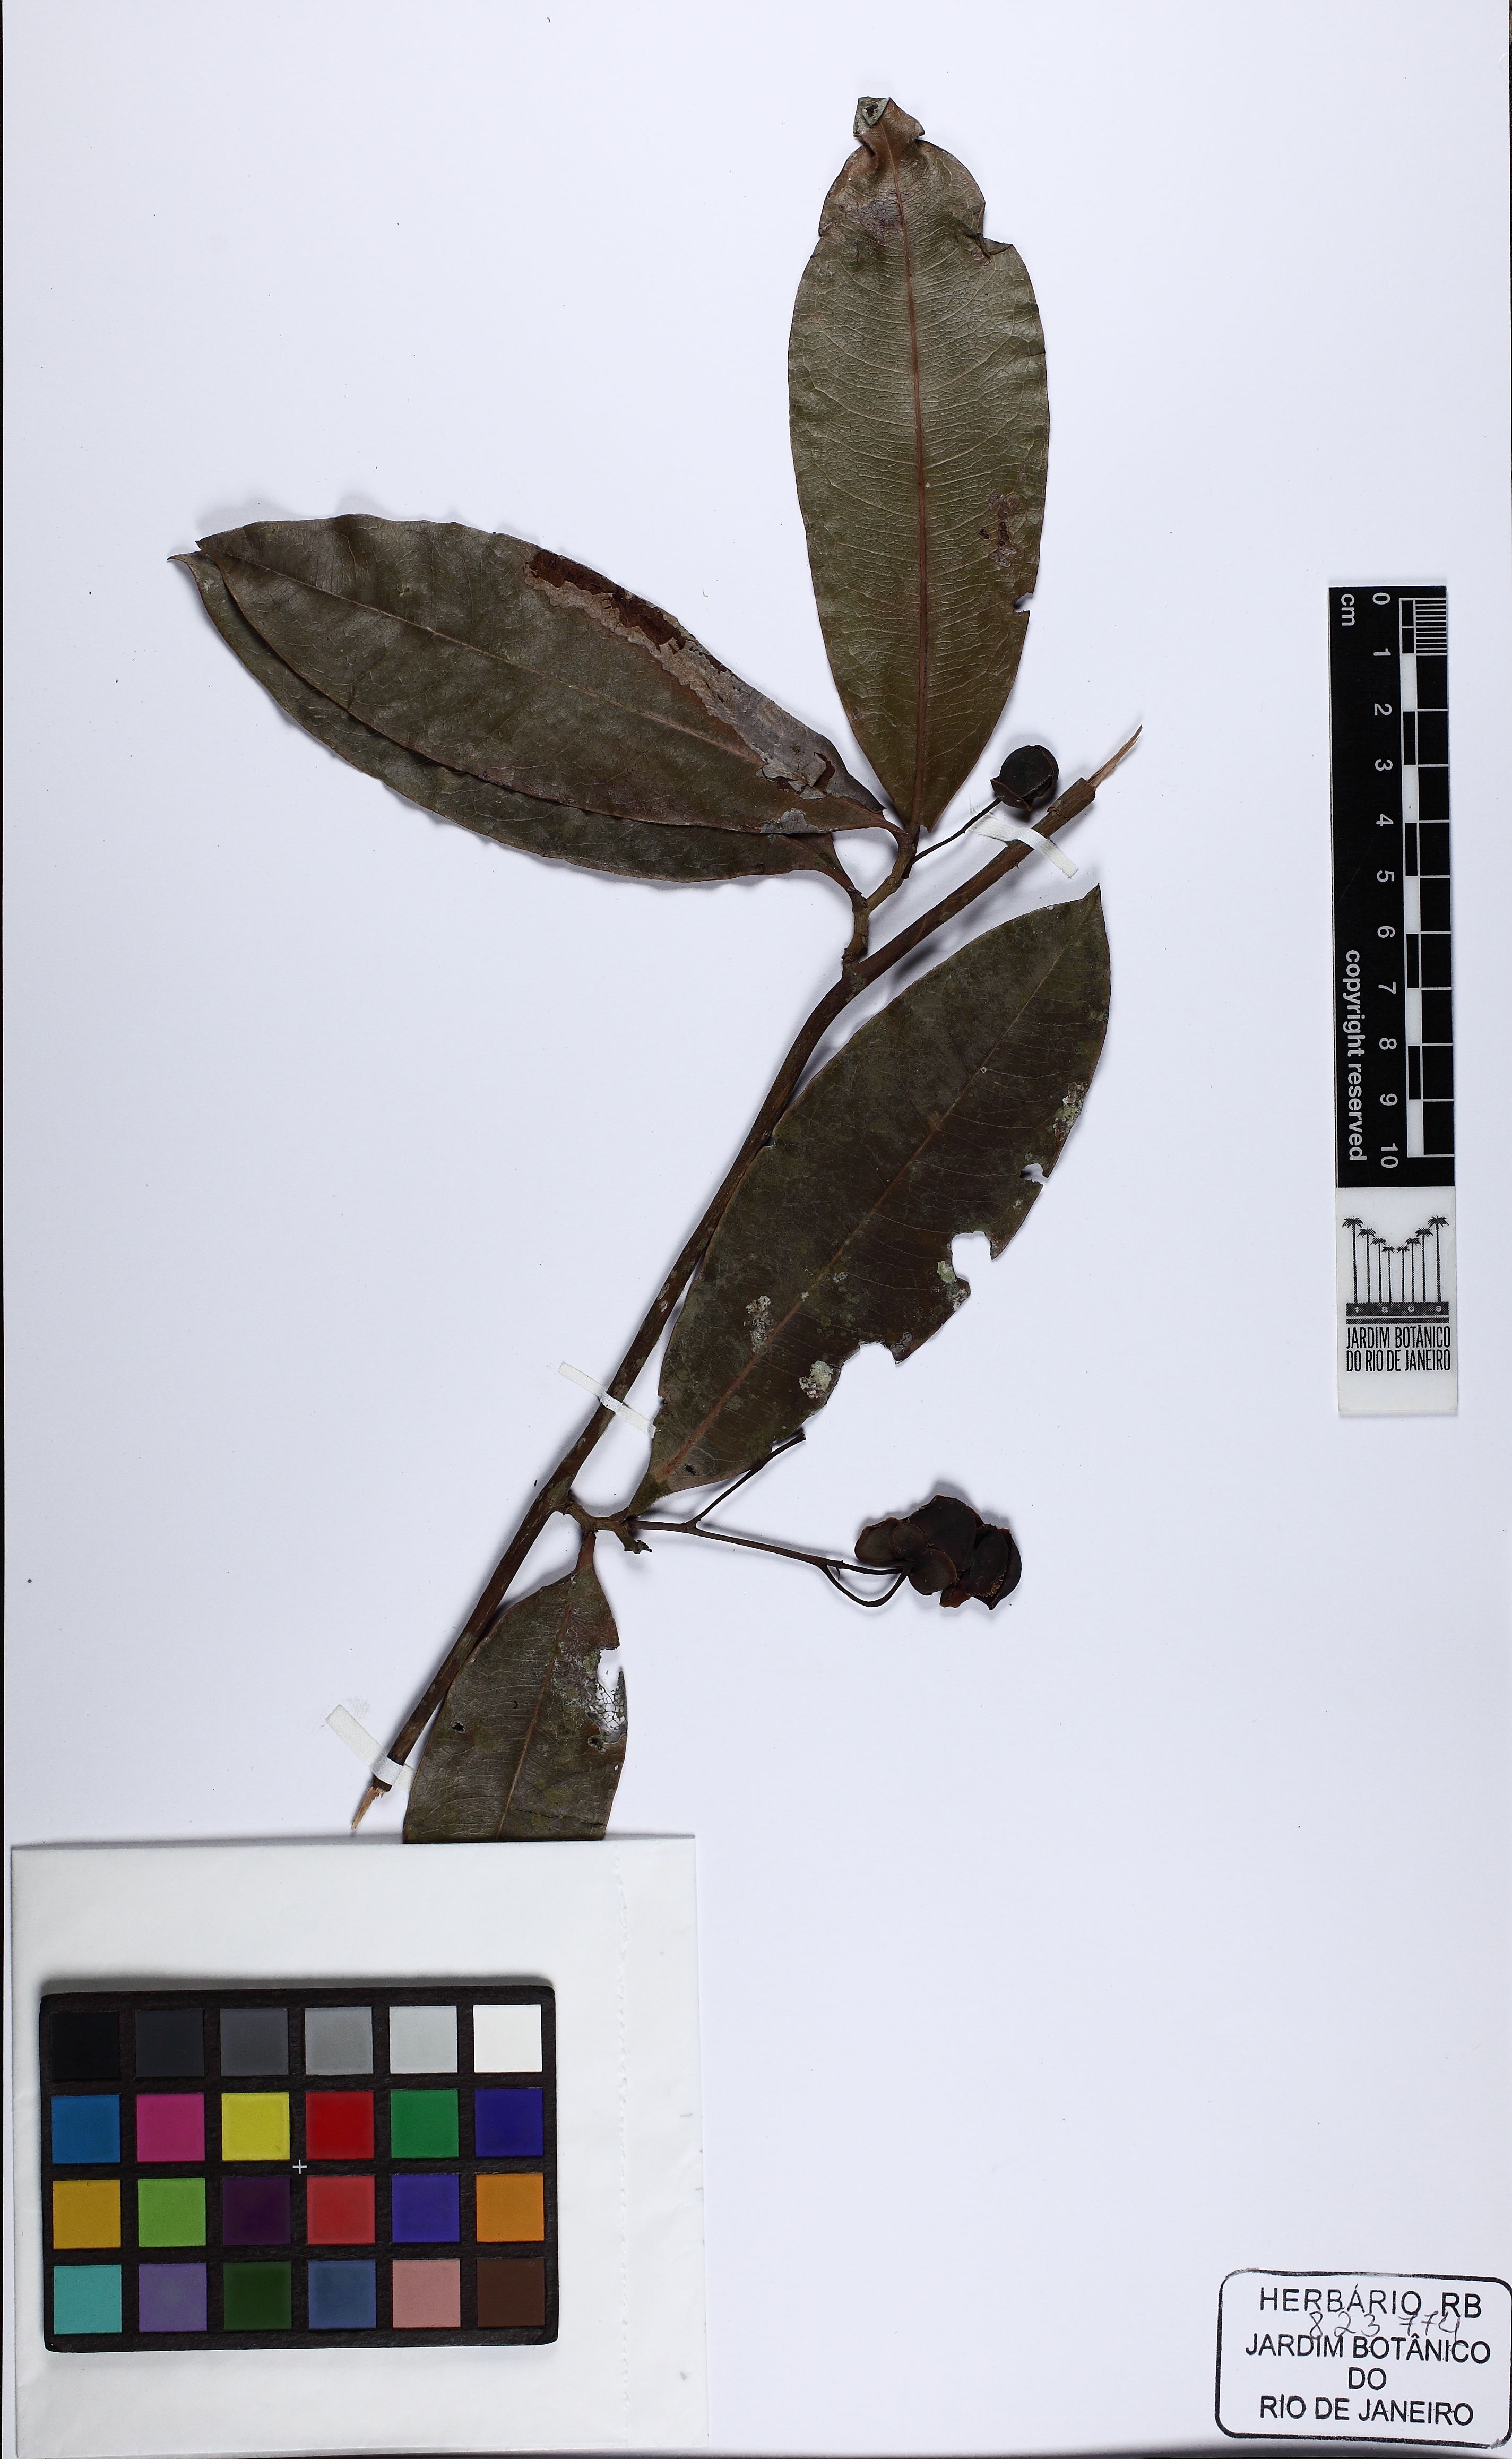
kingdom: Plantae
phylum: Tracheophyta
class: Magnoliopsida
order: Dilleniales
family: Dilleniaceae
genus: Davilla
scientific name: Davilla undulata
